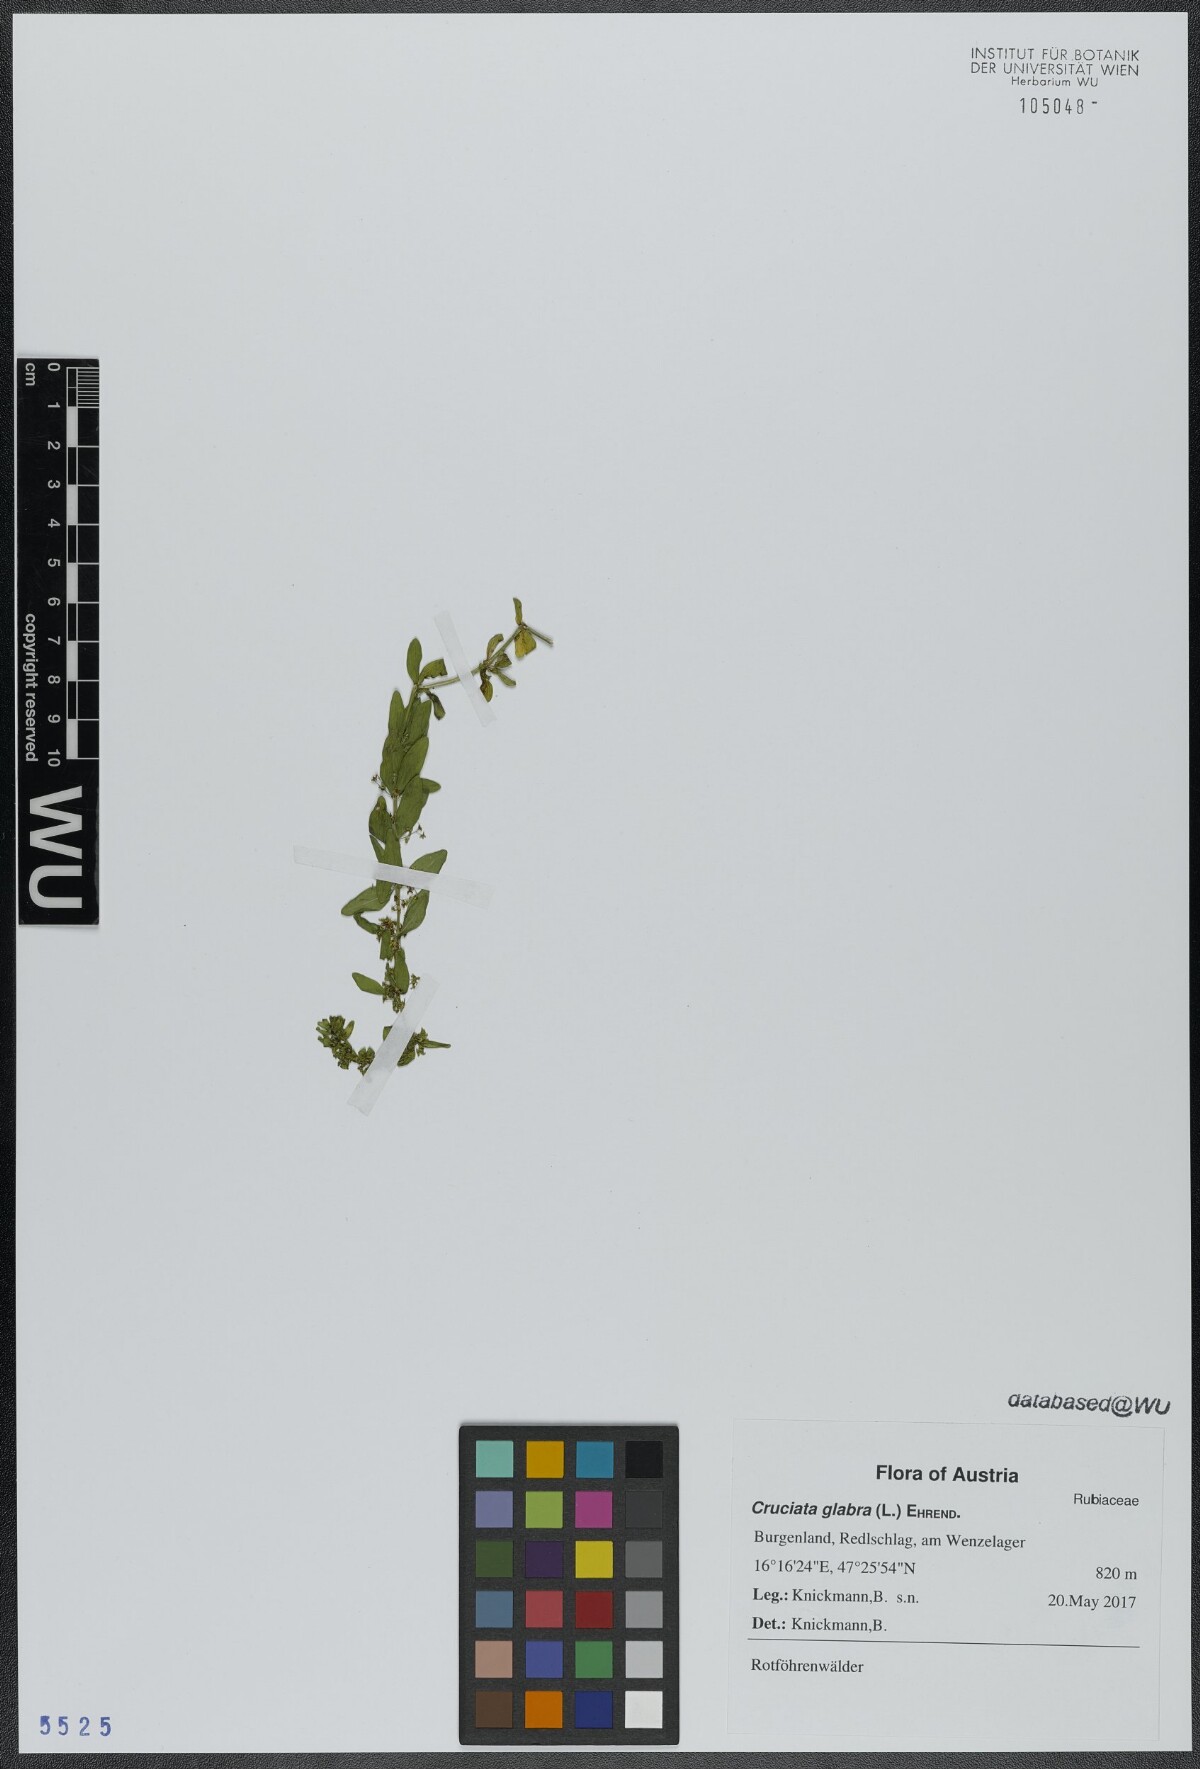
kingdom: Plantae
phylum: Tracheophyta
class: Magnoliopsida
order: Gentianales
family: Rubiaceae
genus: Cruciata
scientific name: Cruciata glabra
